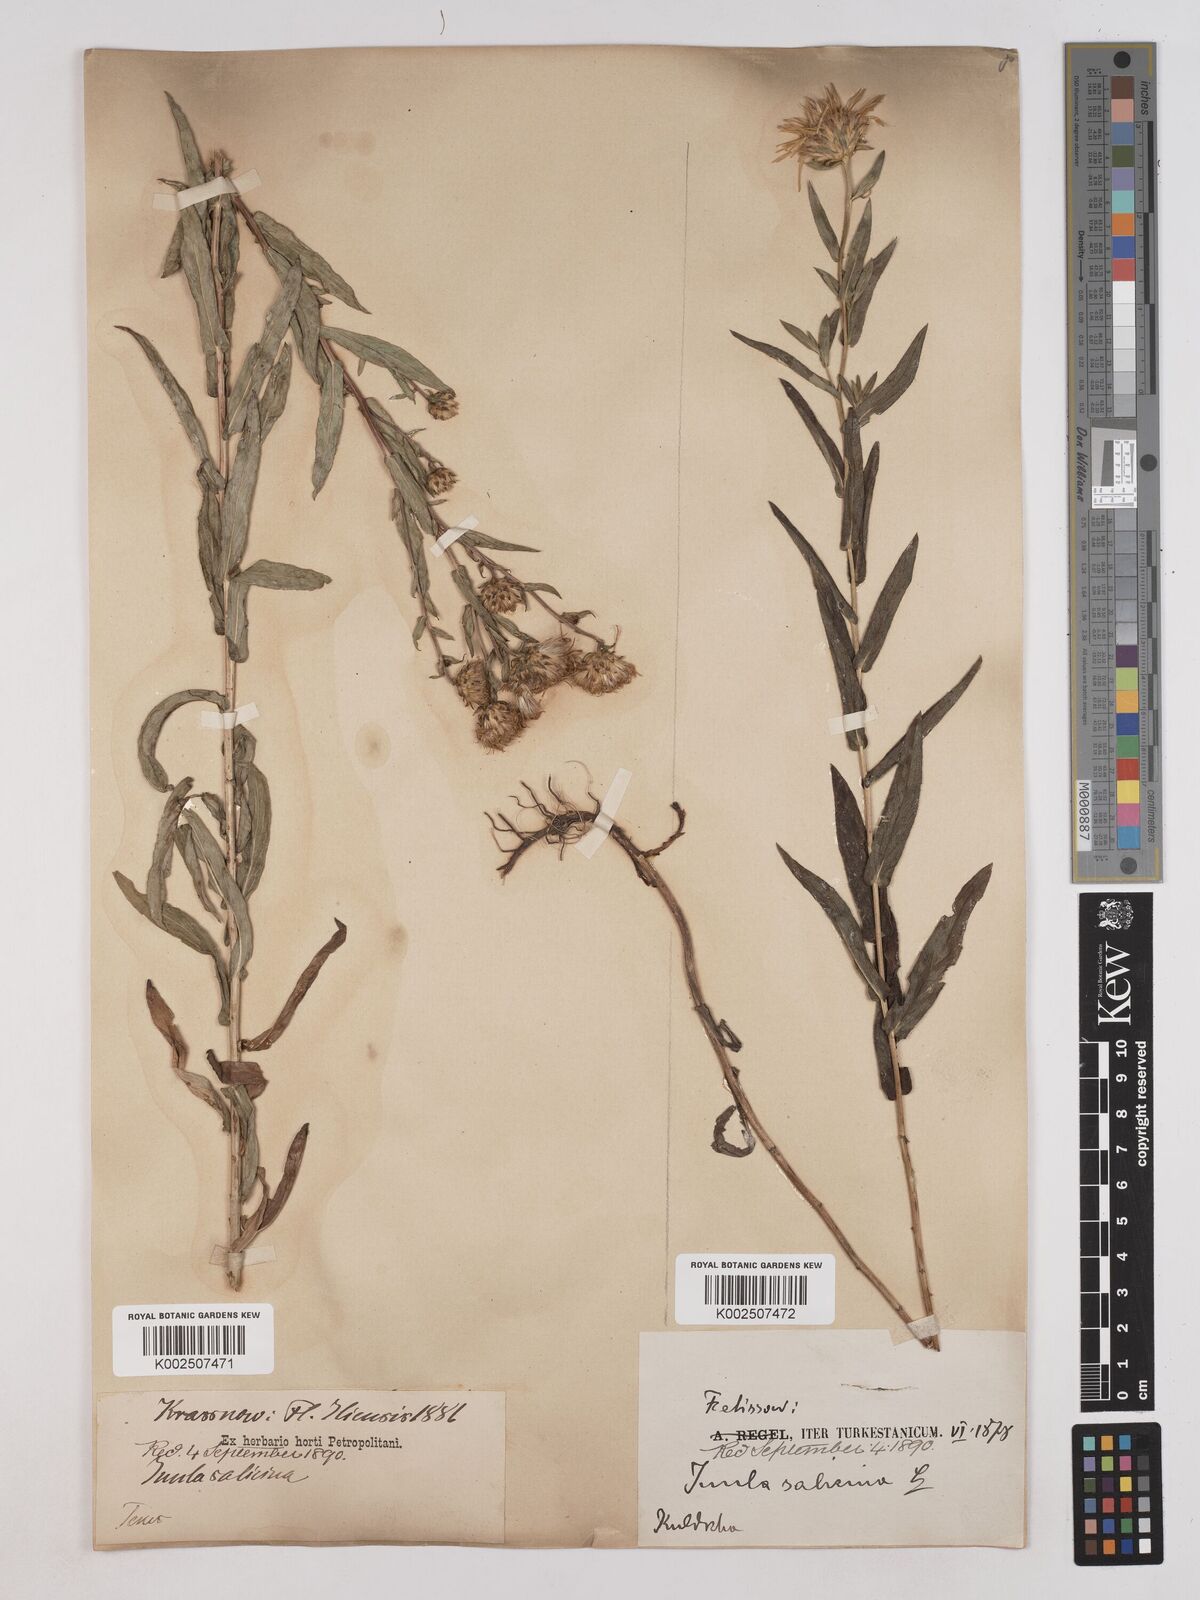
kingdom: Plantae
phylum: Tracheophyta
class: Magnoliopsida
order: Asterales
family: Asteraceae
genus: Pentanema
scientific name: Pentanema salicinum
